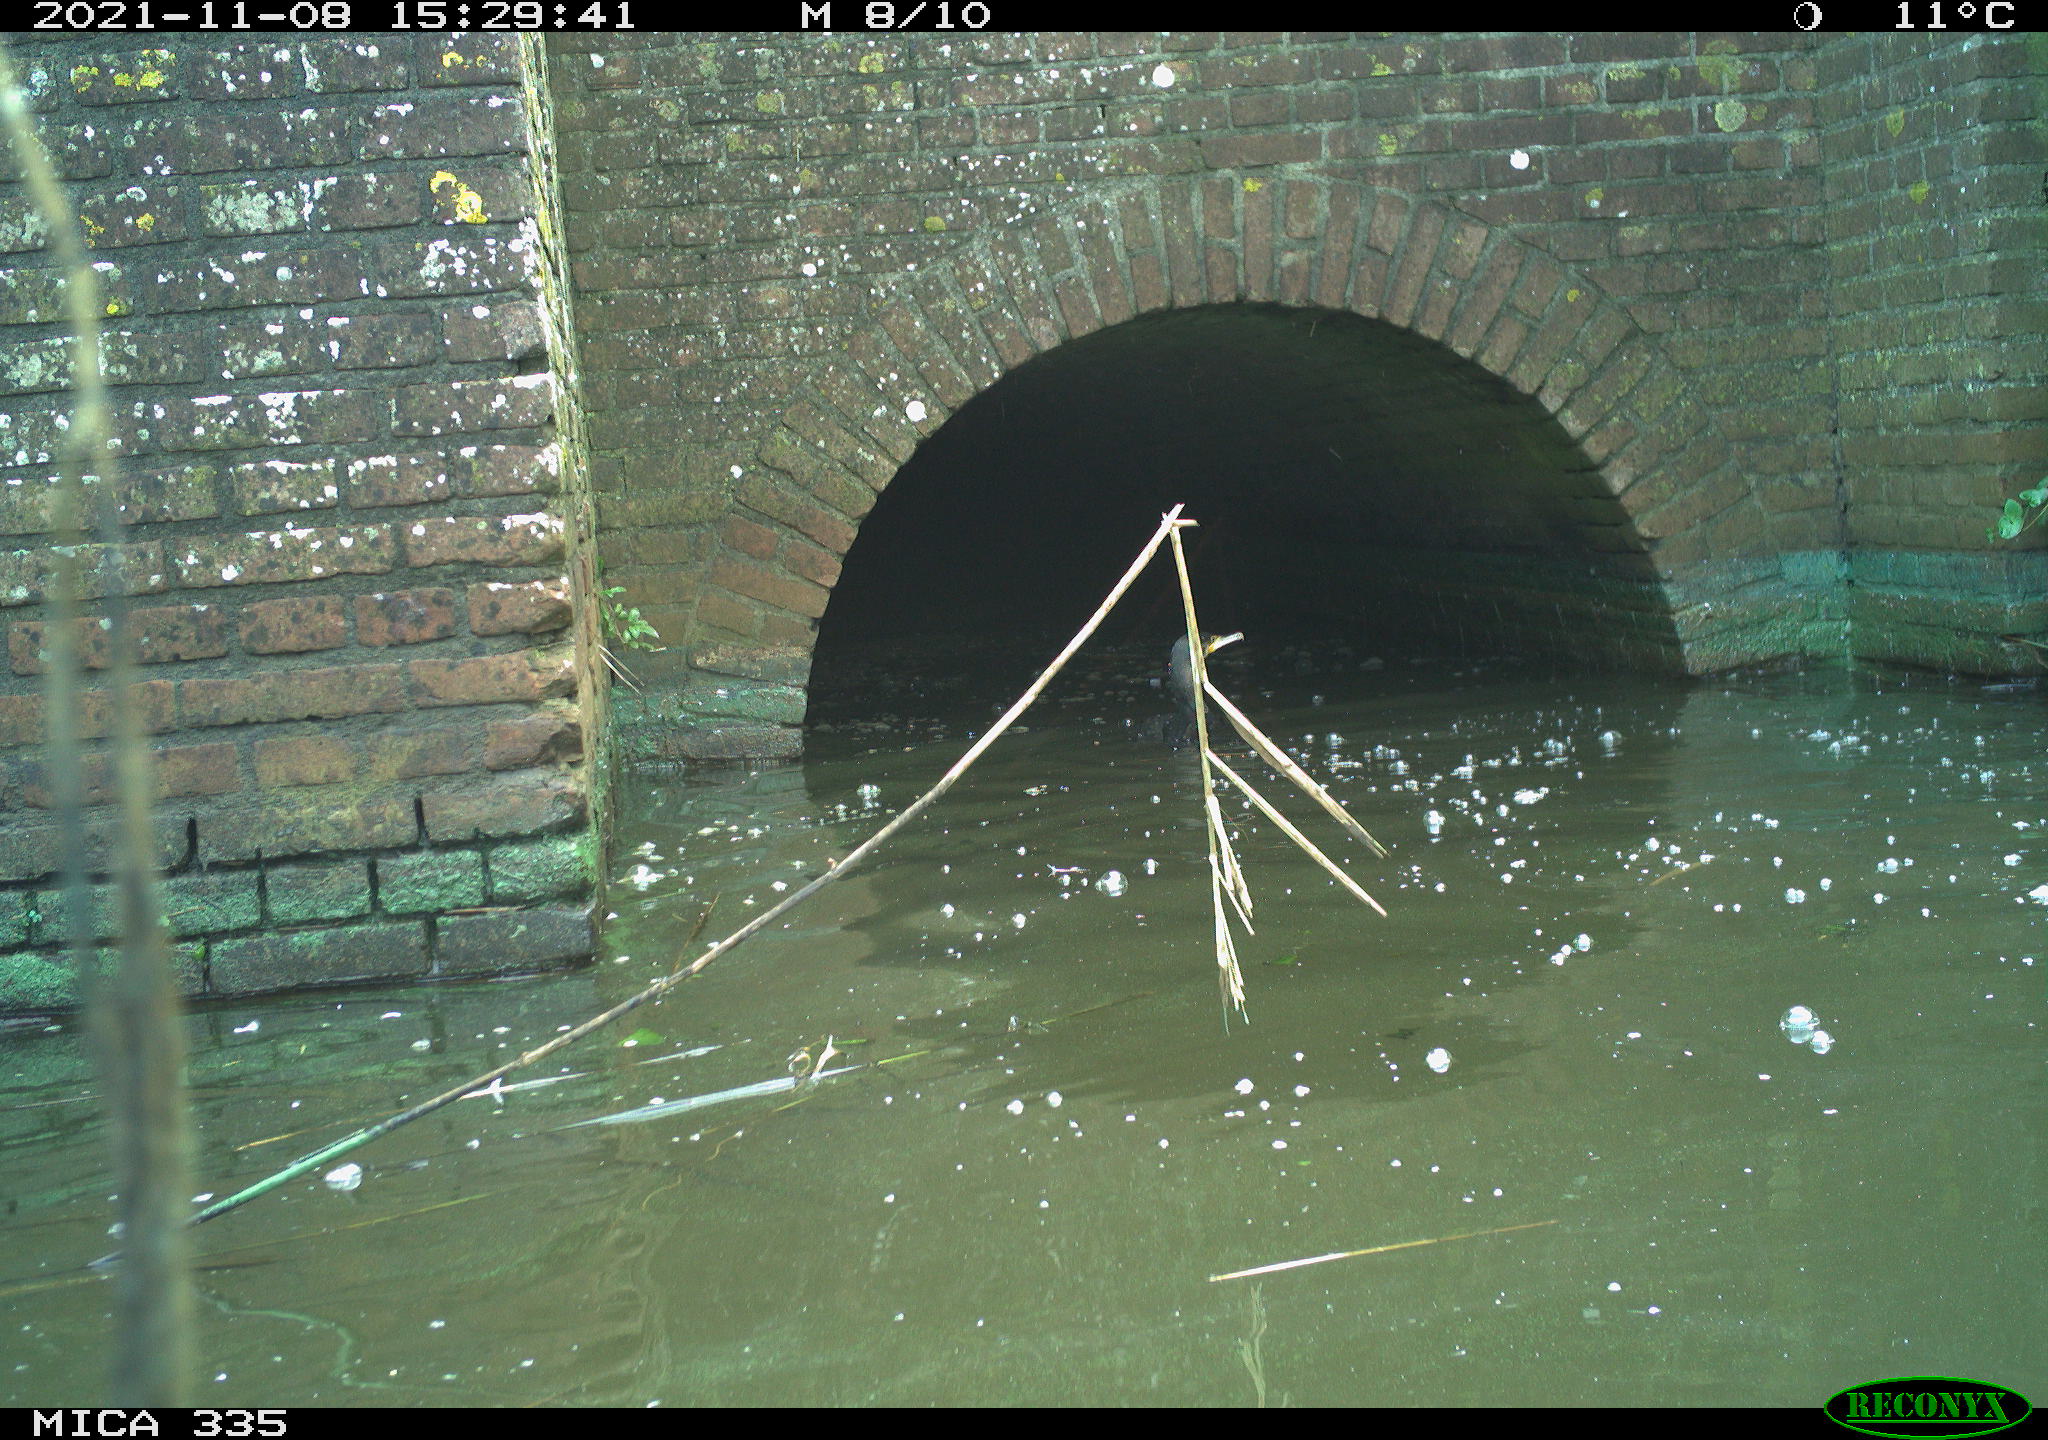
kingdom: Animalia
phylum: Chordata
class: Aves
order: Suliformes
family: Phalacrocoracidae
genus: Phalacrocorax
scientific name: Phalacrocorax carbo
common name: Great cormorant
